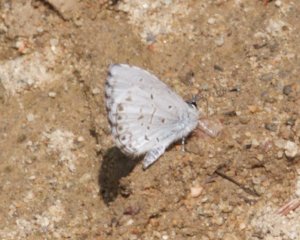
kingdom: Animalia
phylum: Arthropoda
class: Insecta
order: Lepidoptera
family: Lycaenidae
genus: Celastrina
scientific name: Celastrina
